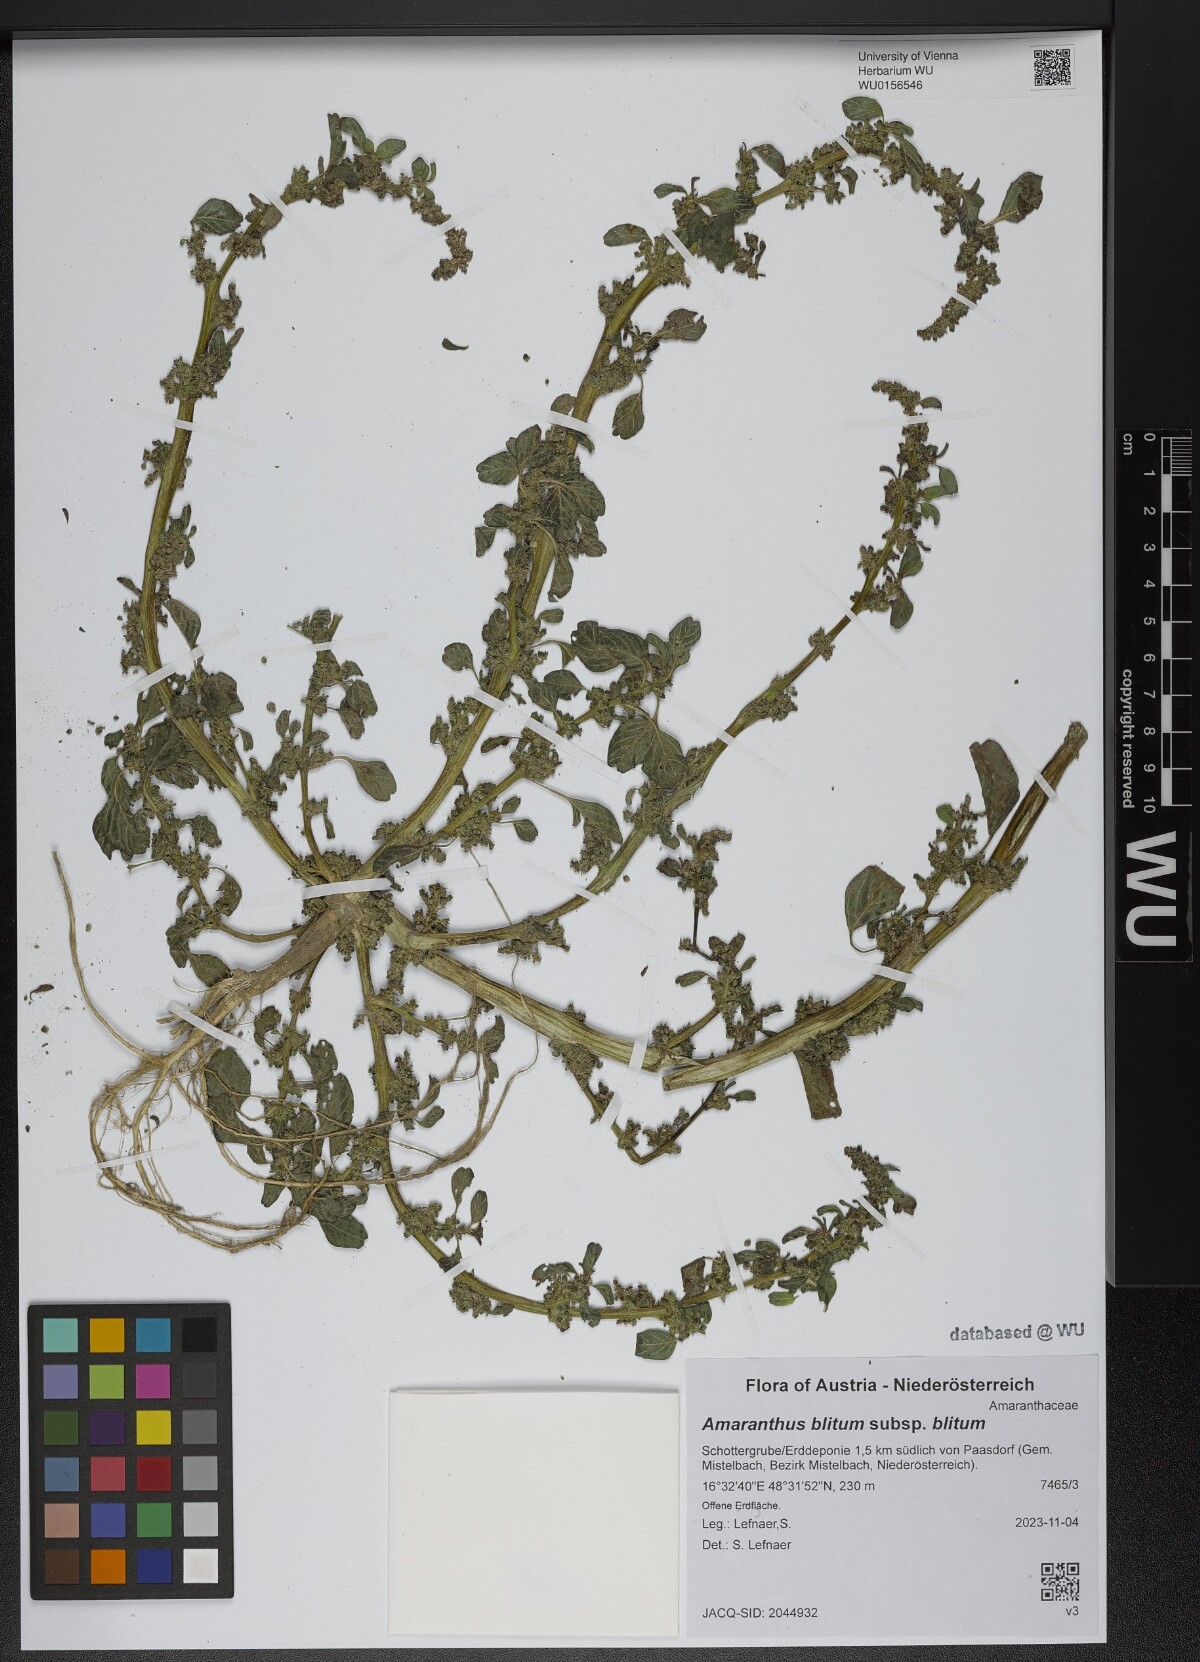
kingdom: Plantae
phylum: Tracheophyta
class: Magnoliopsida
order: Caryophyllales
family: Amaranthaceae
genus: Amaranthus
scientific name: Amaranthus blitum
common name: Purple amaranth
